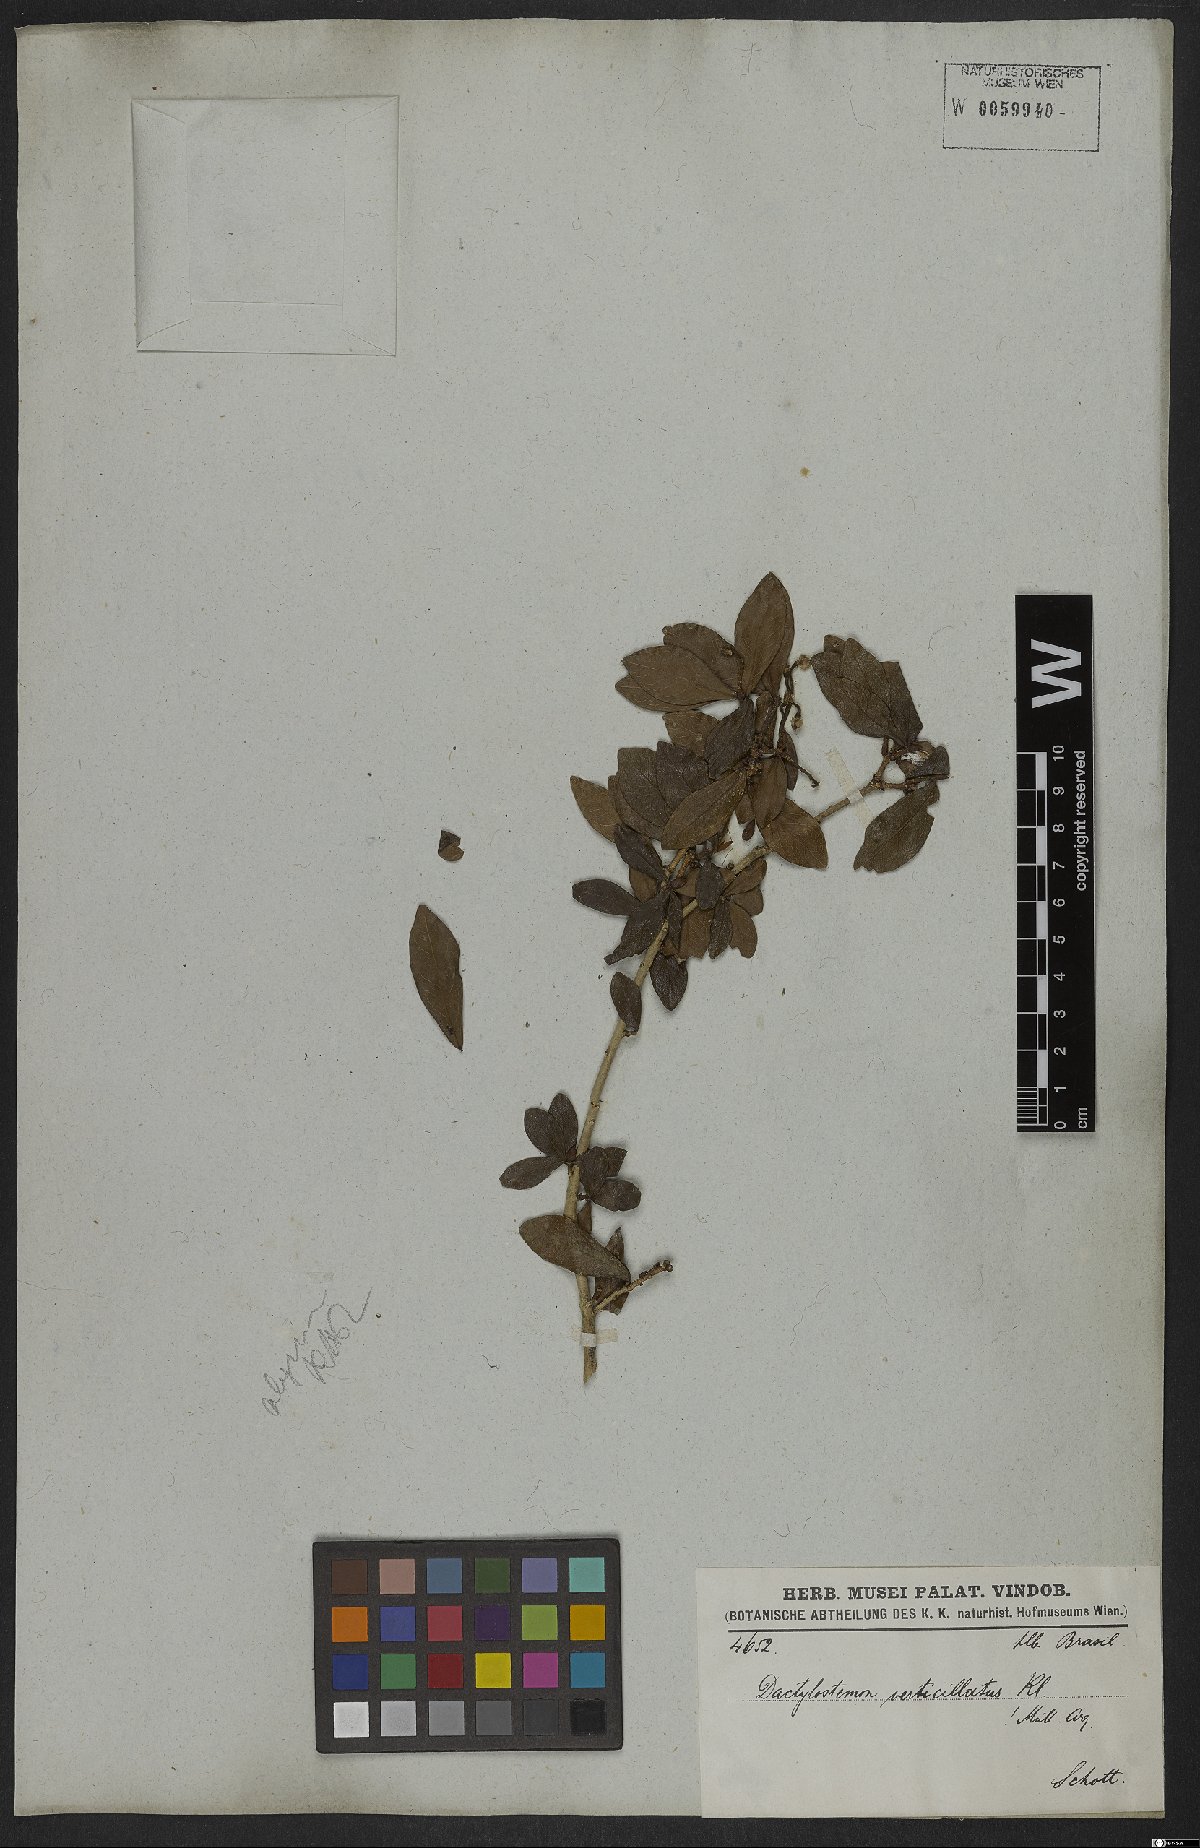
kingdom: Plantae
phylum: Tracheophyta
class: Magnoliopsida
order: Malpighiales
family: Euphorbiaceae
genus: Actinostemon
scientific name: Actinostemon verticillatus
